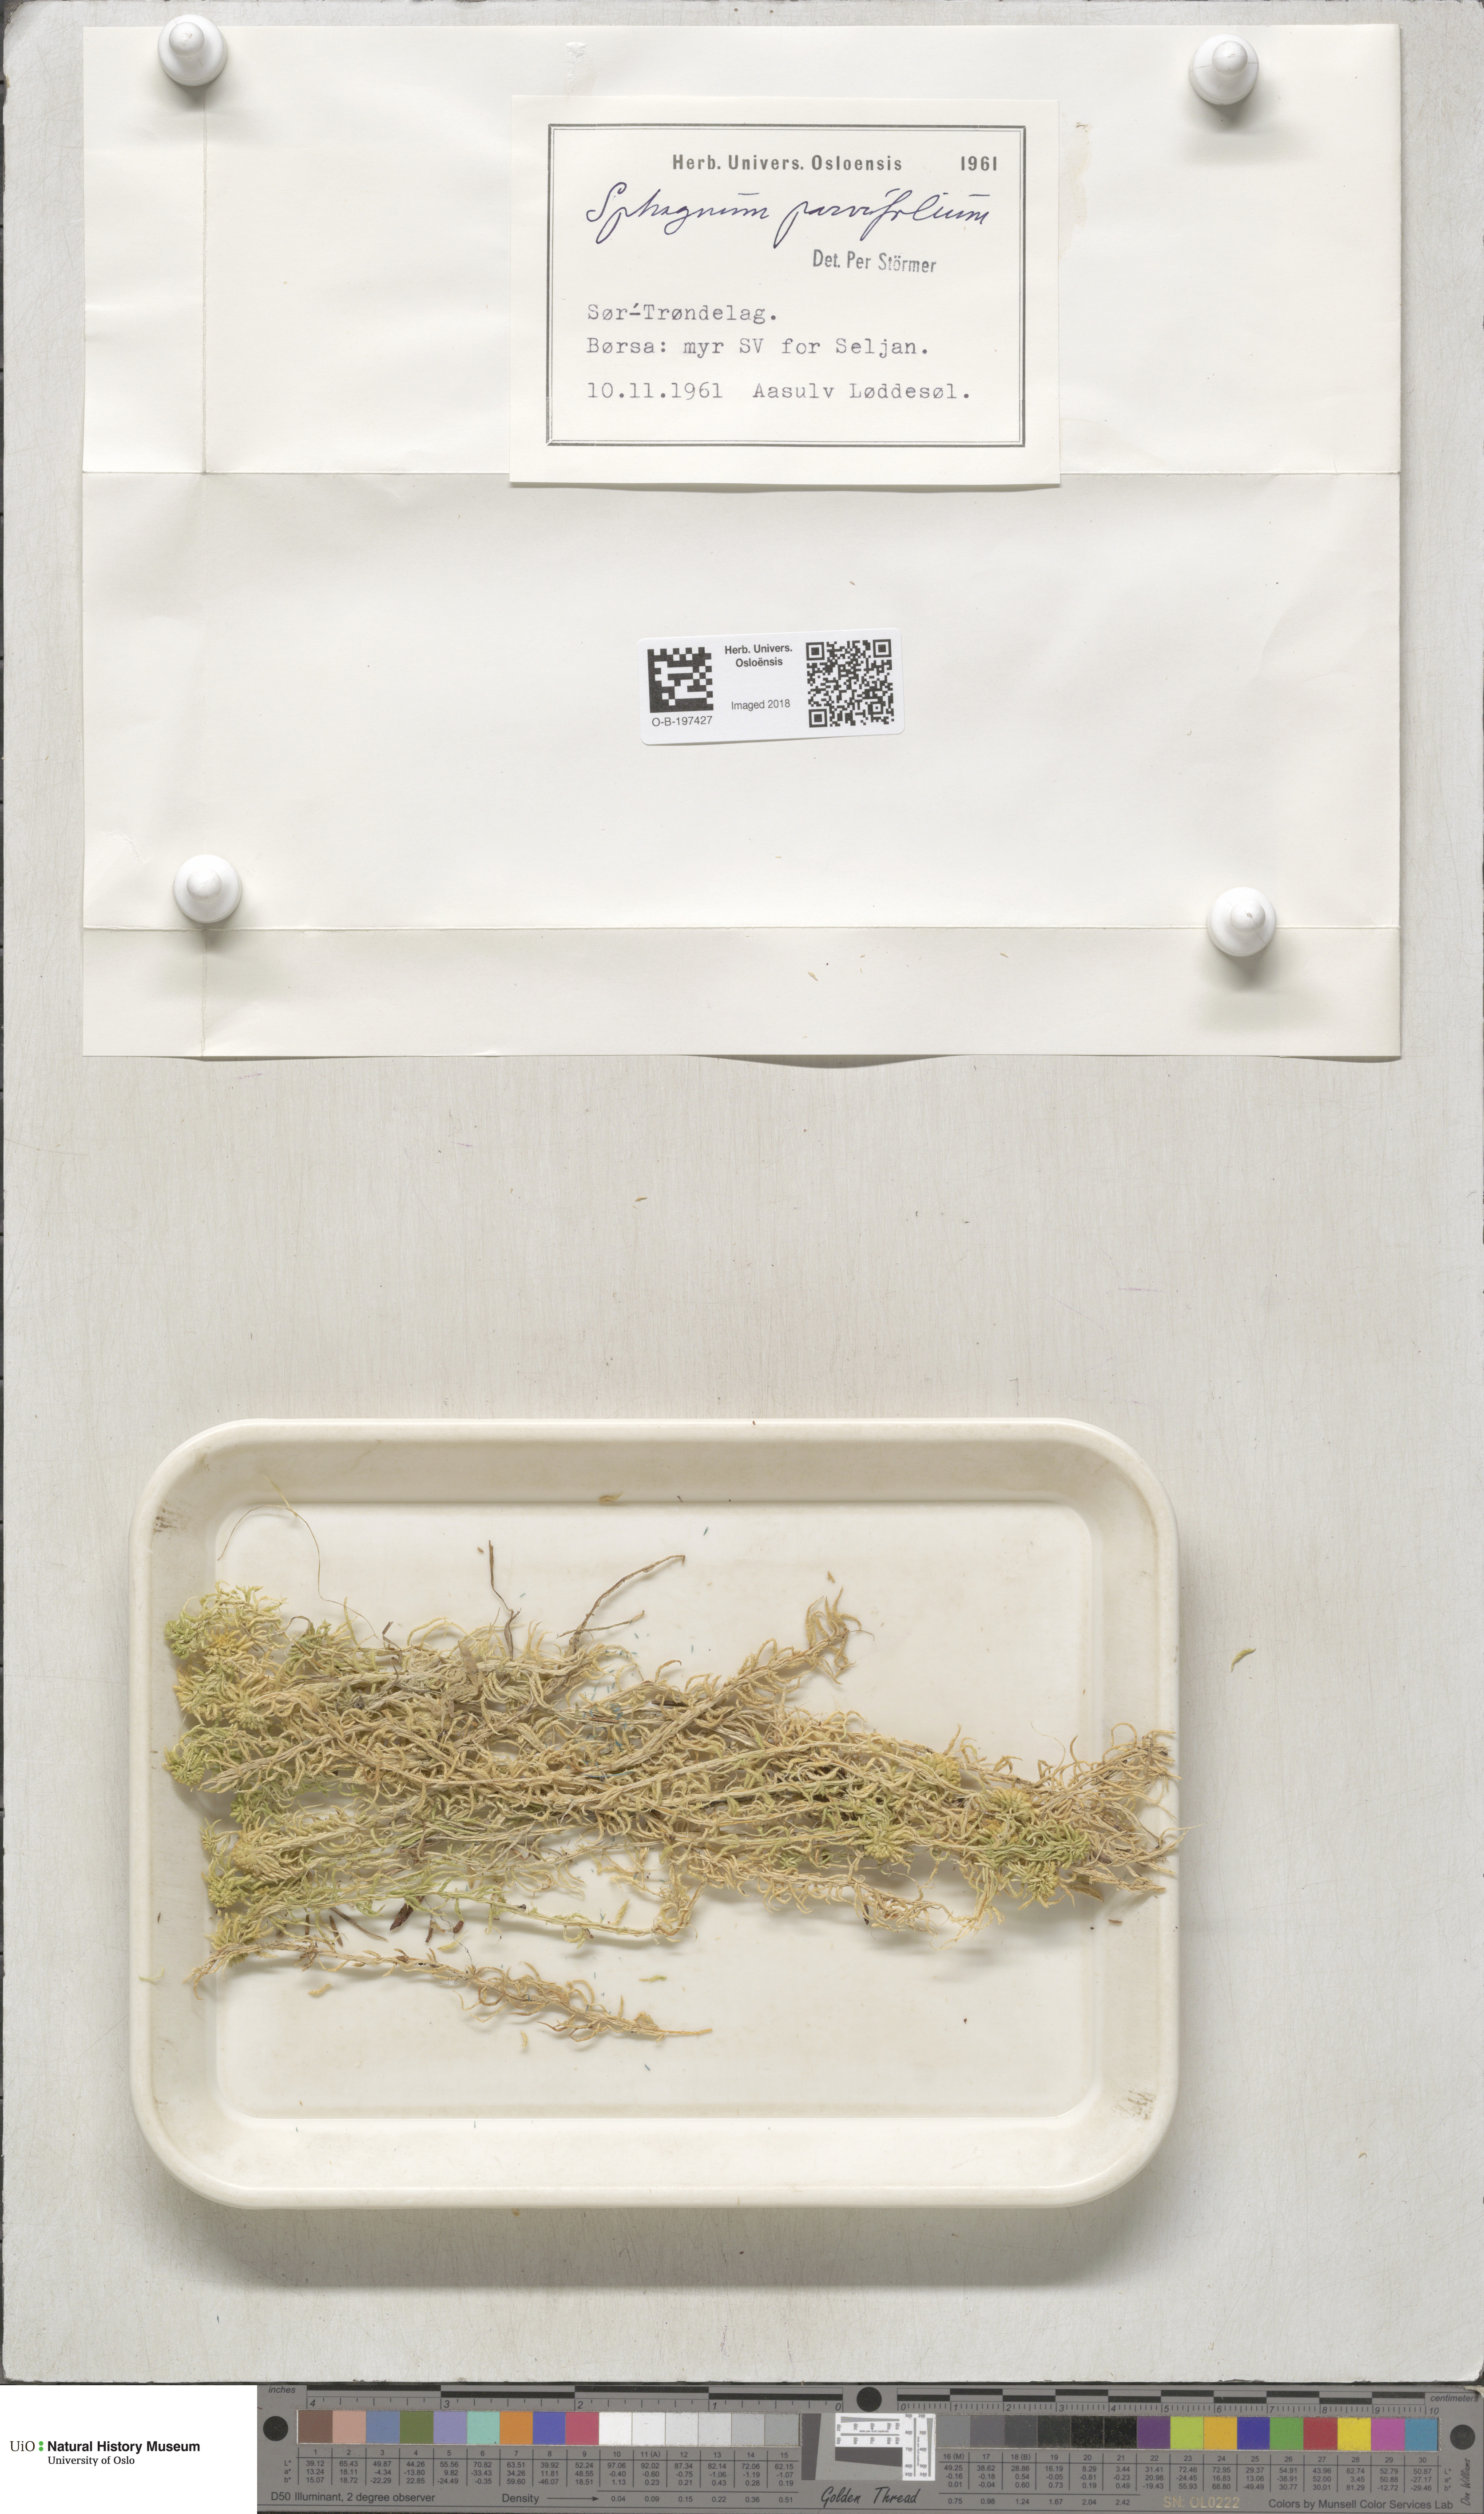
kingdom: Plantae
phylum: Bryophyta
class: Sphagnopsida
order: Sphagnales
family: Sphagnaceae
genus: Sphagnum
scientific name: Sphagnum angustifolium
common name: Narrow-leaved peat moss
